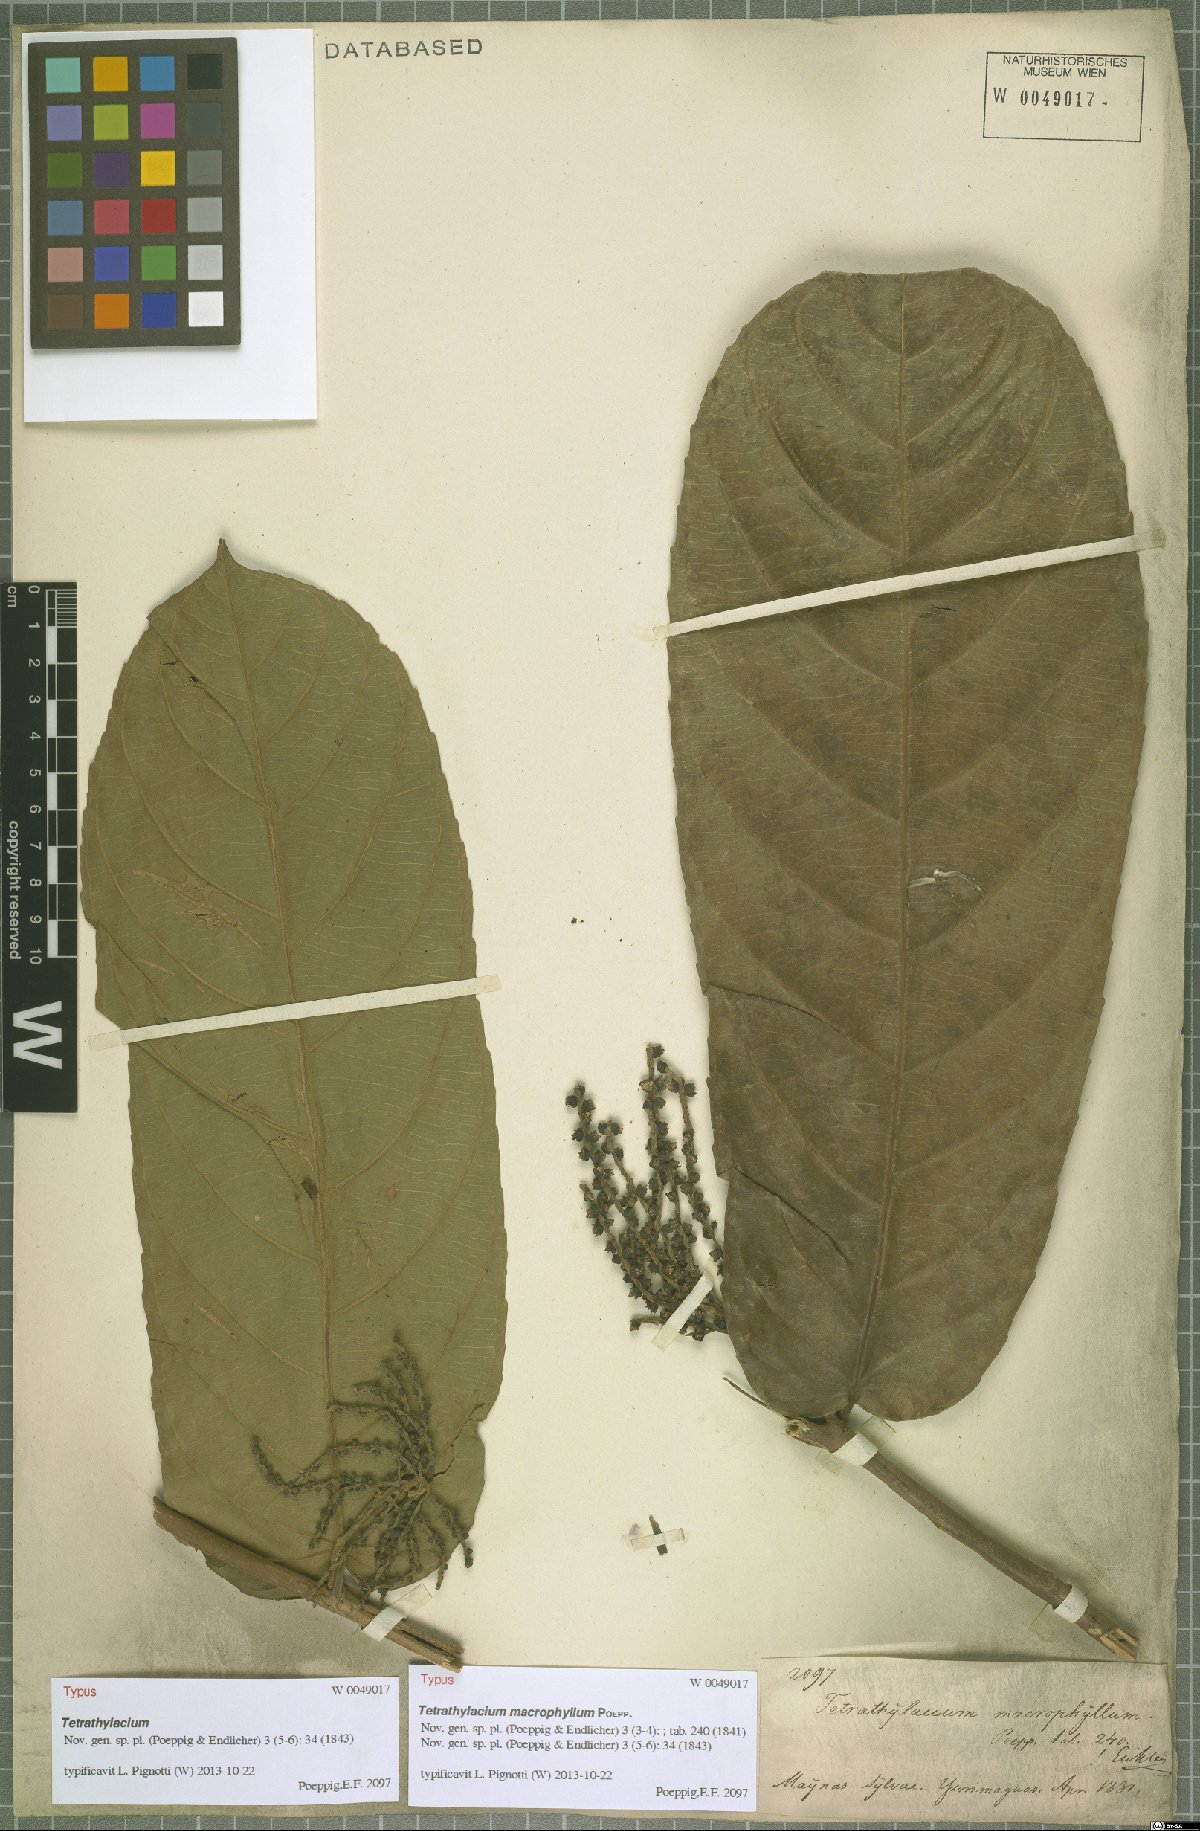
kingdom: Plantae
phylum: Tracheophyta
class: Magnoliopsida
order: Malpighiales
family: Salicaceae
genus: Tetrathylacium
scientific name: Tetrathylacium macrophyllum
